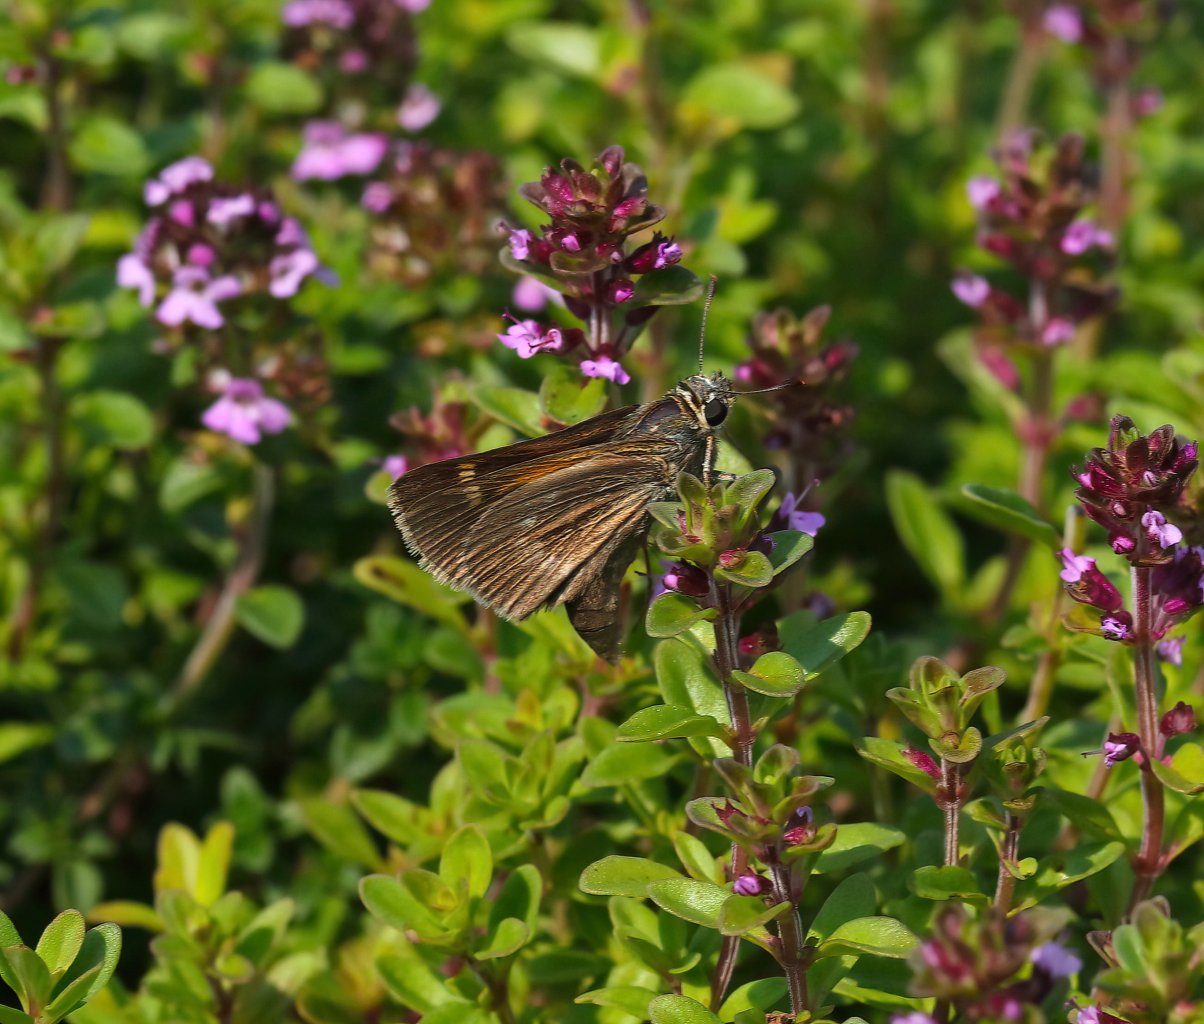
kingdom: Animalia
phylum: Arthropoda
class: Insecta
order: Lepidoptera
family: Hesperiidae
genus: Polites
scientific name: Polites egeremet
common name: Northern Broken-Dash
